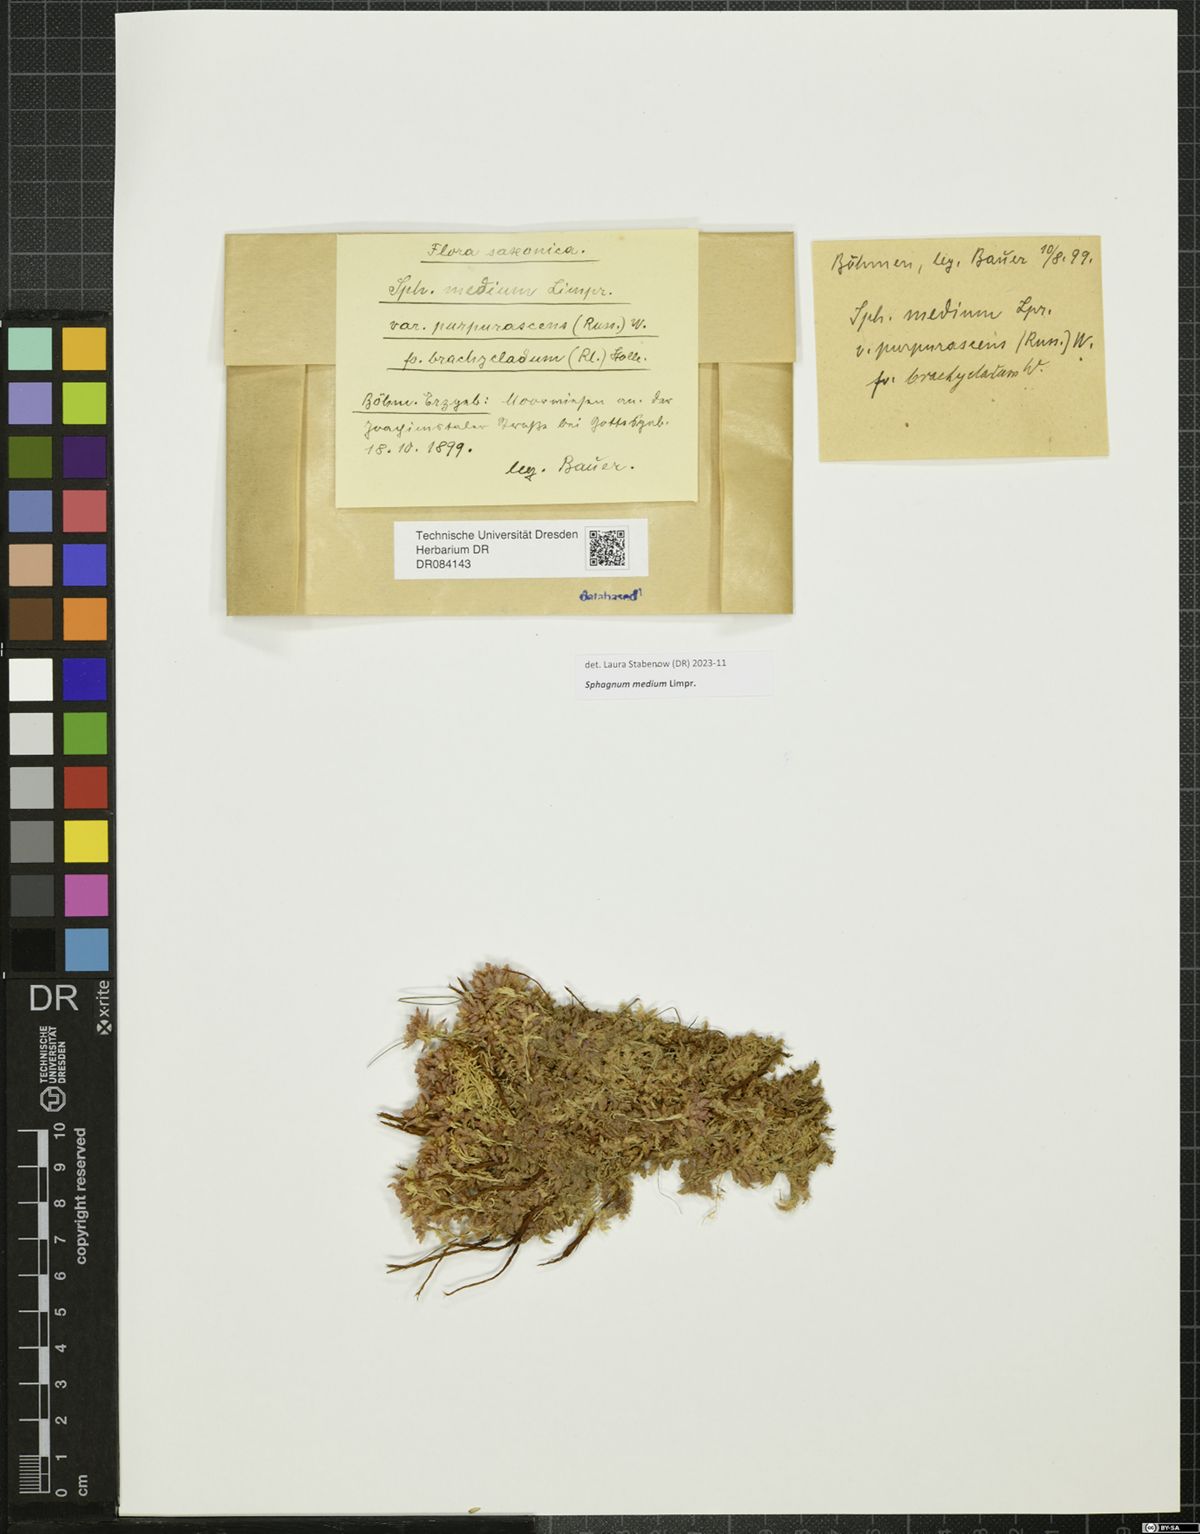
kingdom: Plantae
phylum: Bryophyta
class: Sphagnopsida
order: Sphagnales
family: Sphagnaceae
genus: Sphagnum
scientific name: Sphagnum medium
